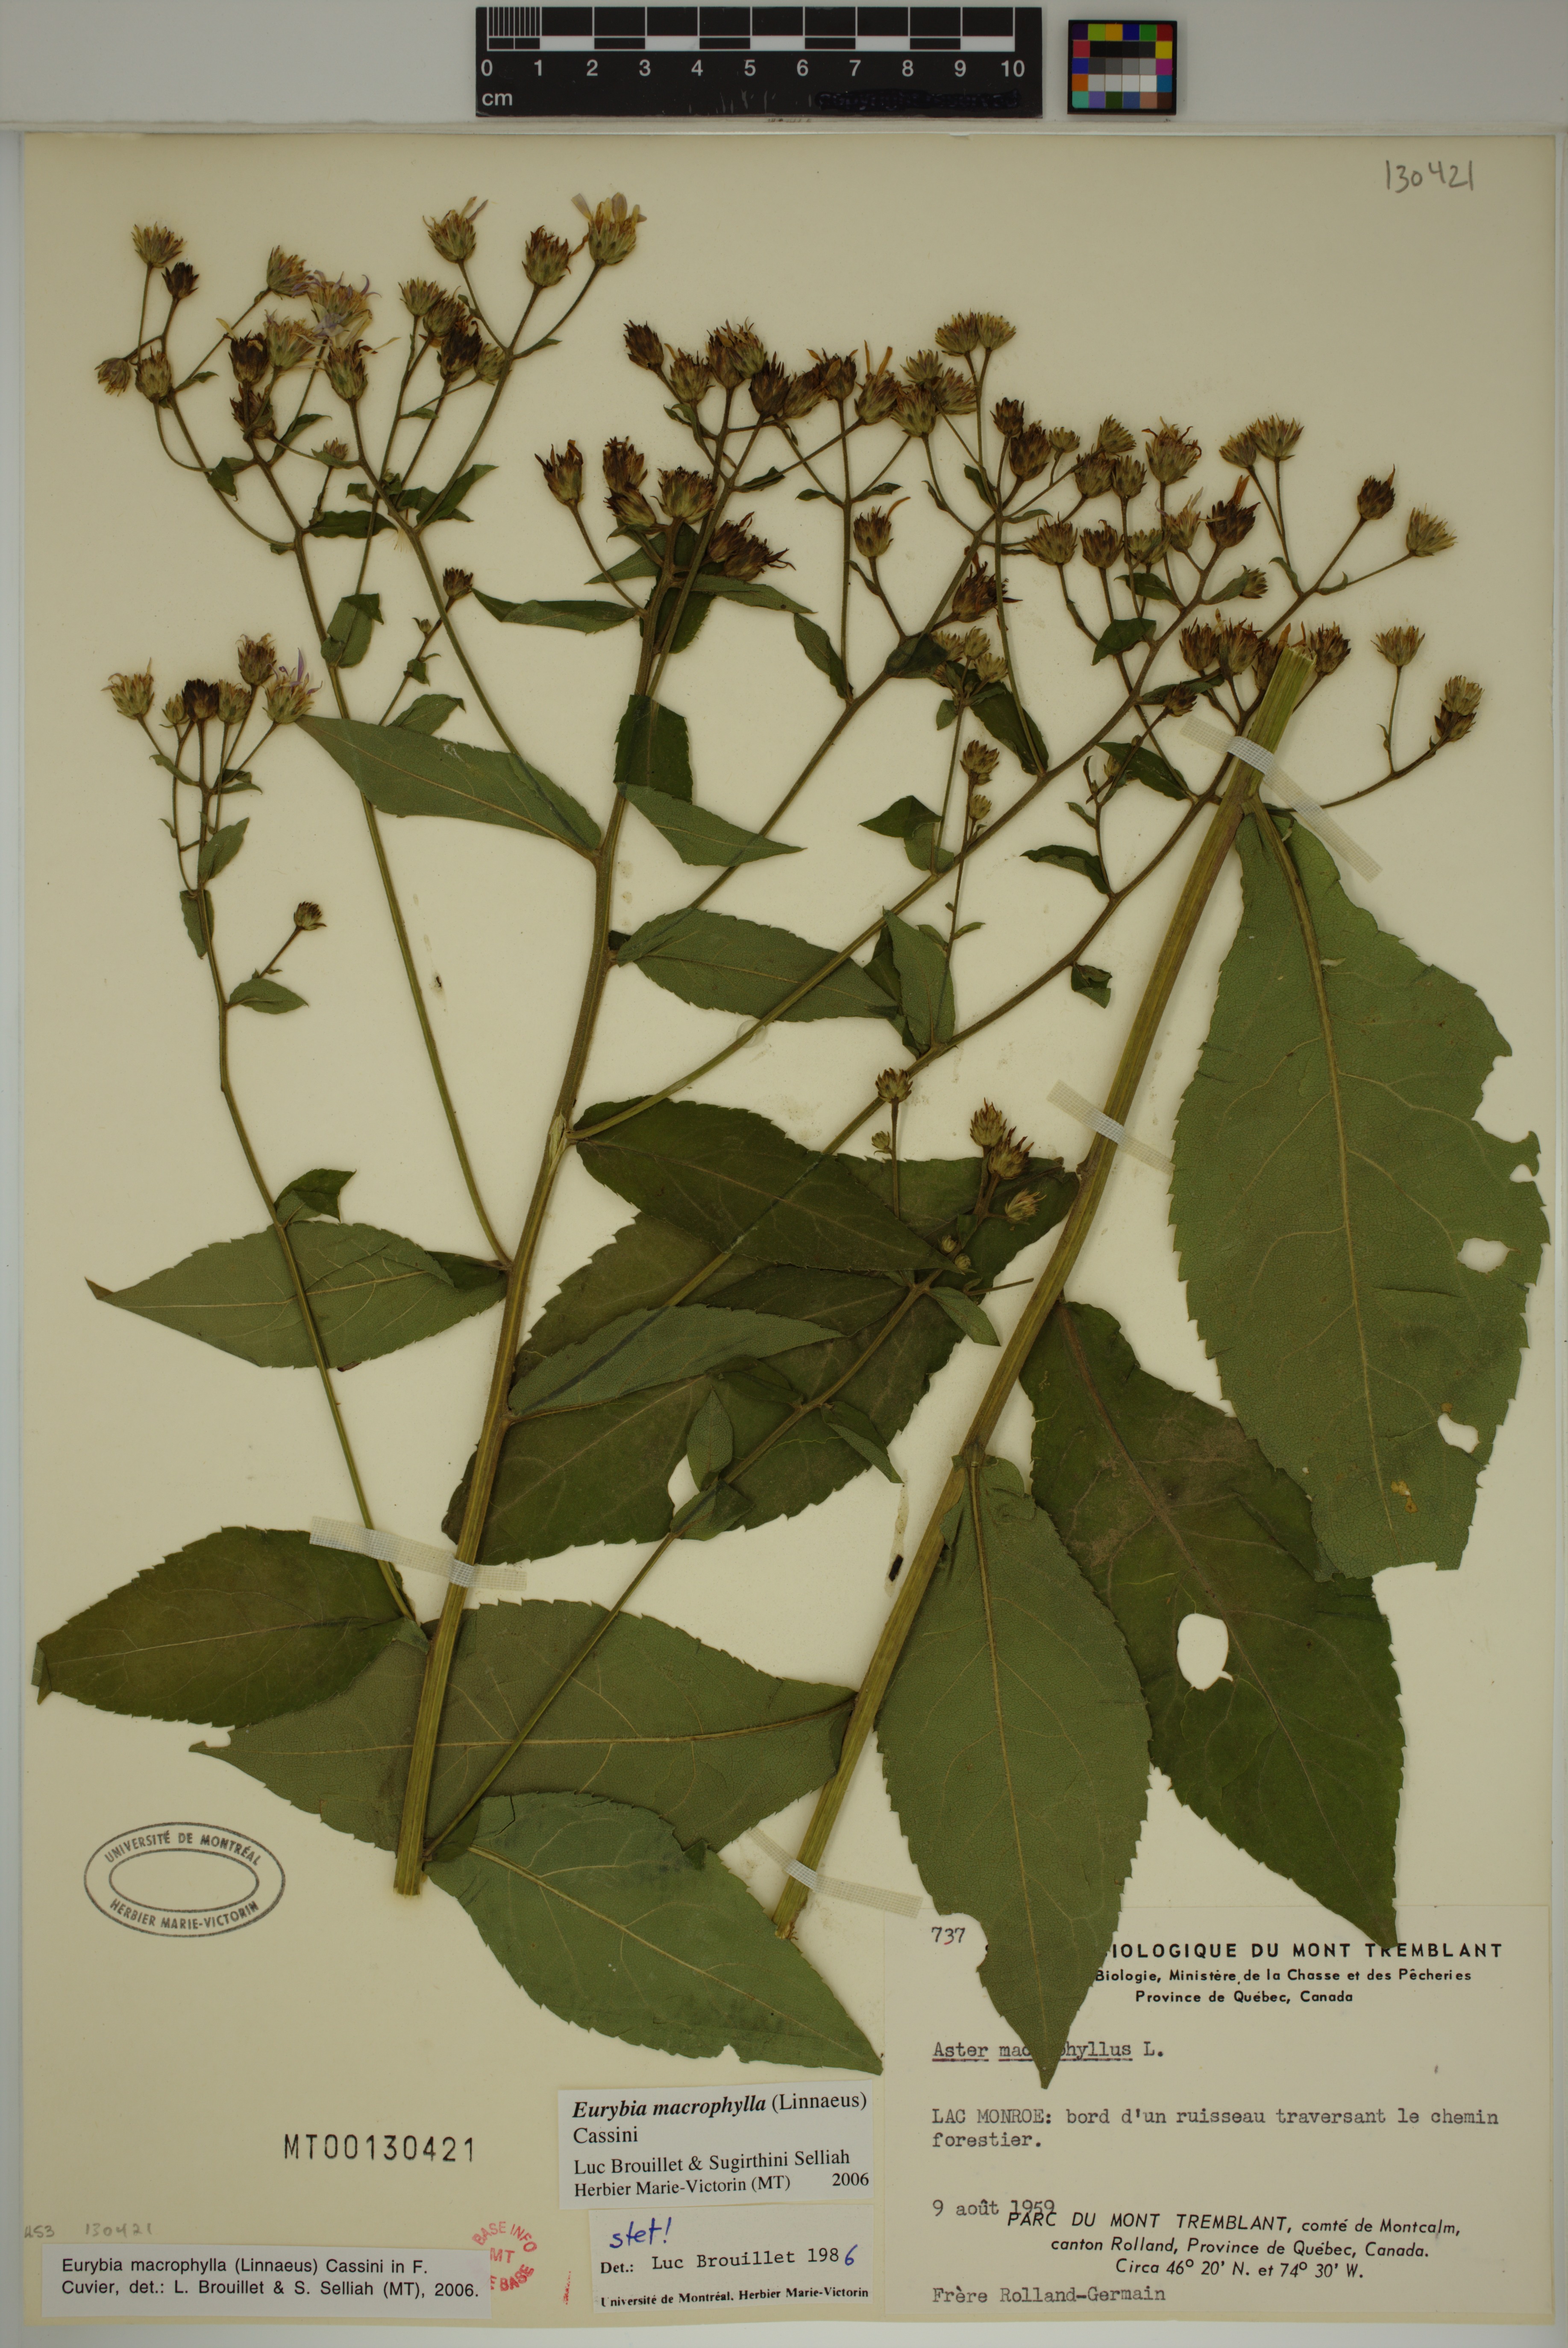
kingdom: Plantae
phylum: Tracheophyta
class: Magnoliopsida
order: Asterales
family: Asteraceae
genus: Eurybia
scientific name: Eurybia macrophylla
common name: Big-leaved aster
